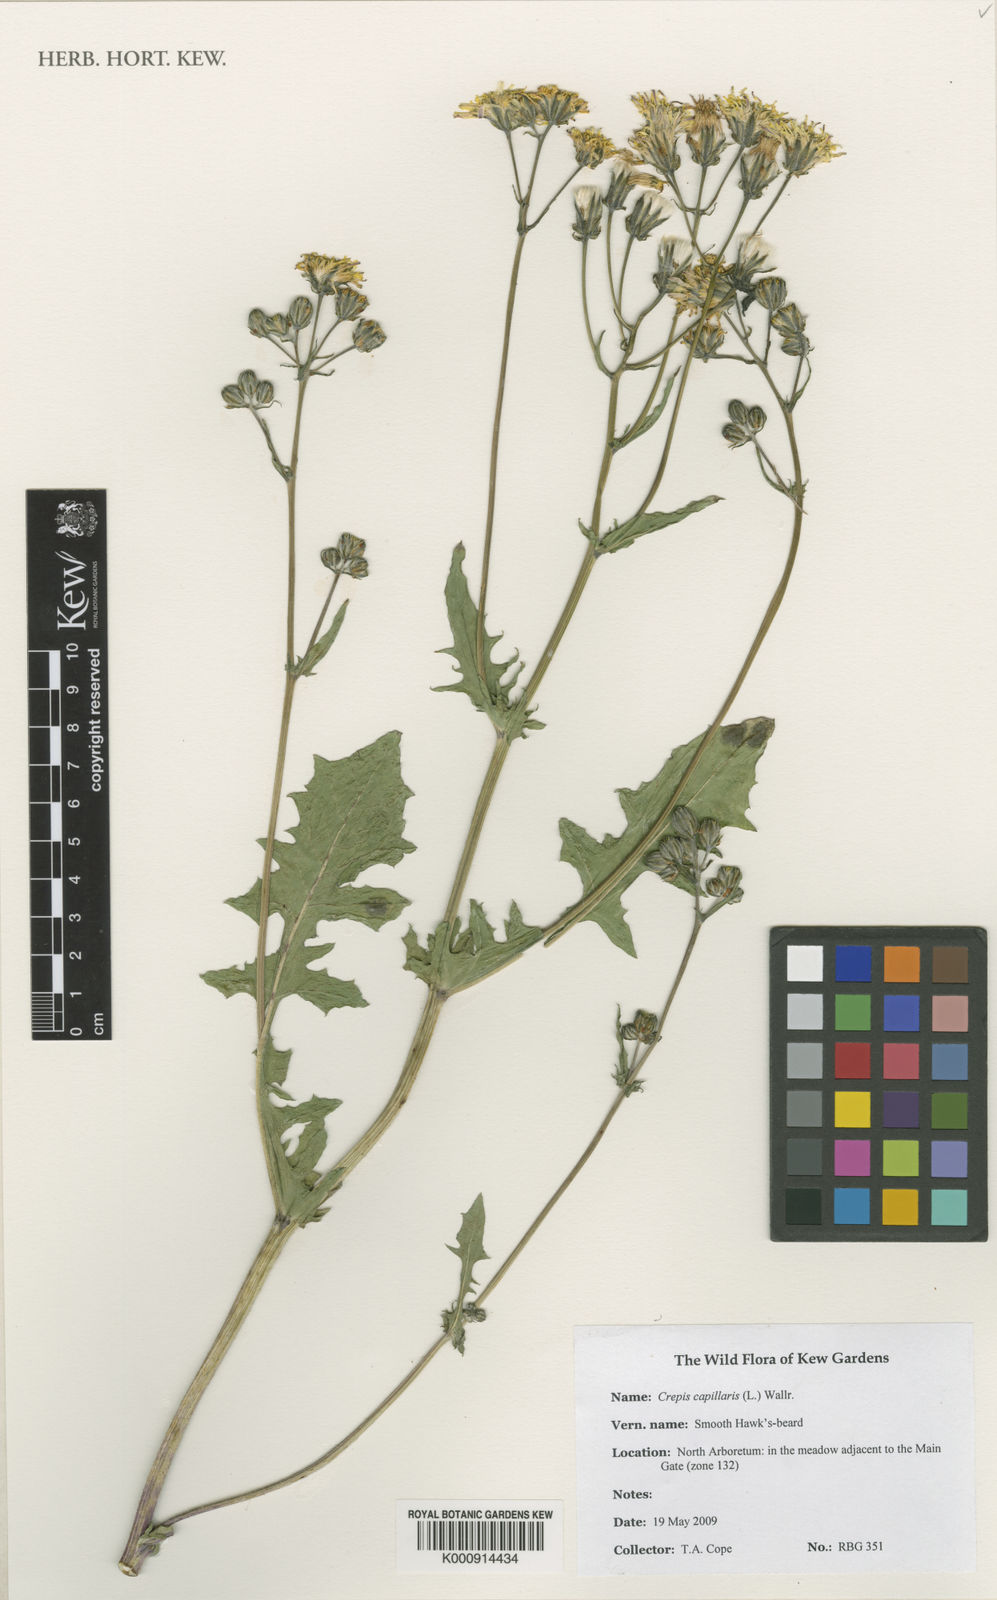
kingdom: Plantae
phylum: Tracheophyta
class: Magnoliopsida
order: Asterales
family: Asteraceae
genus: Crepis
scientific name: Crepis capillaris
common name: Smooth hawksbeard
